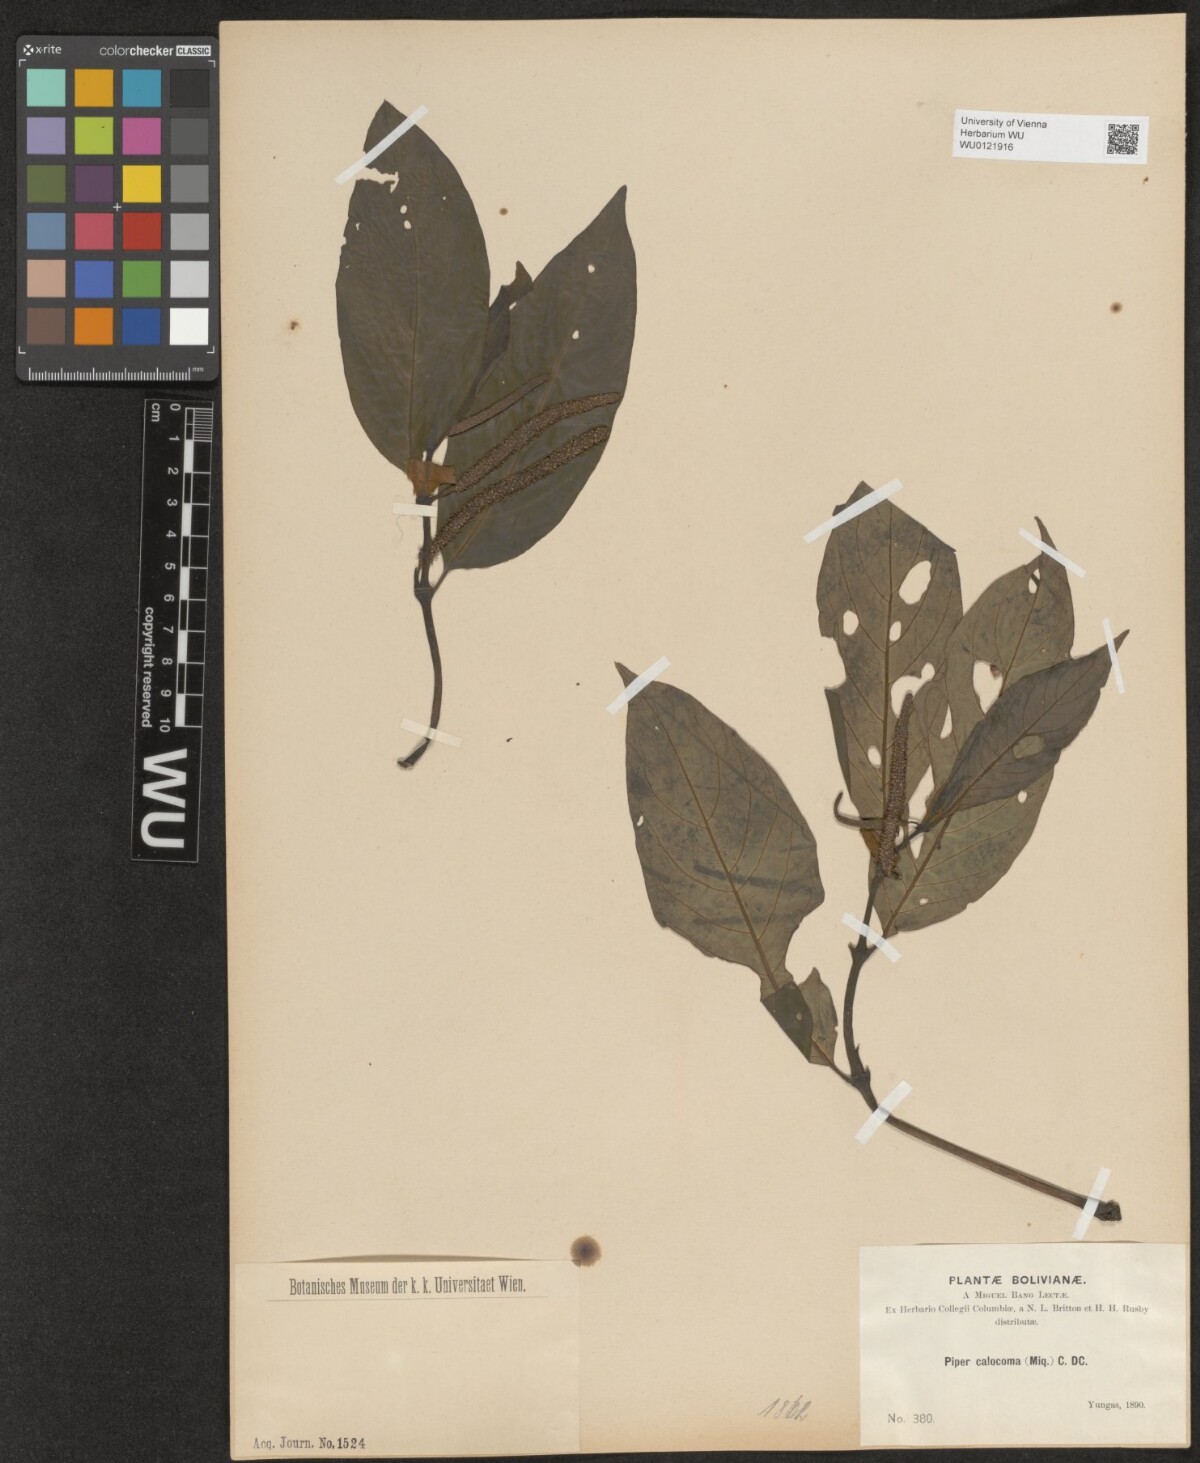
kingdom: Plantae
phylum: Tracheophyta
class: Magnoliopsida
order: Piperales
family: Piperaceae
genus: Piper
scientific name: Piper calocoma
